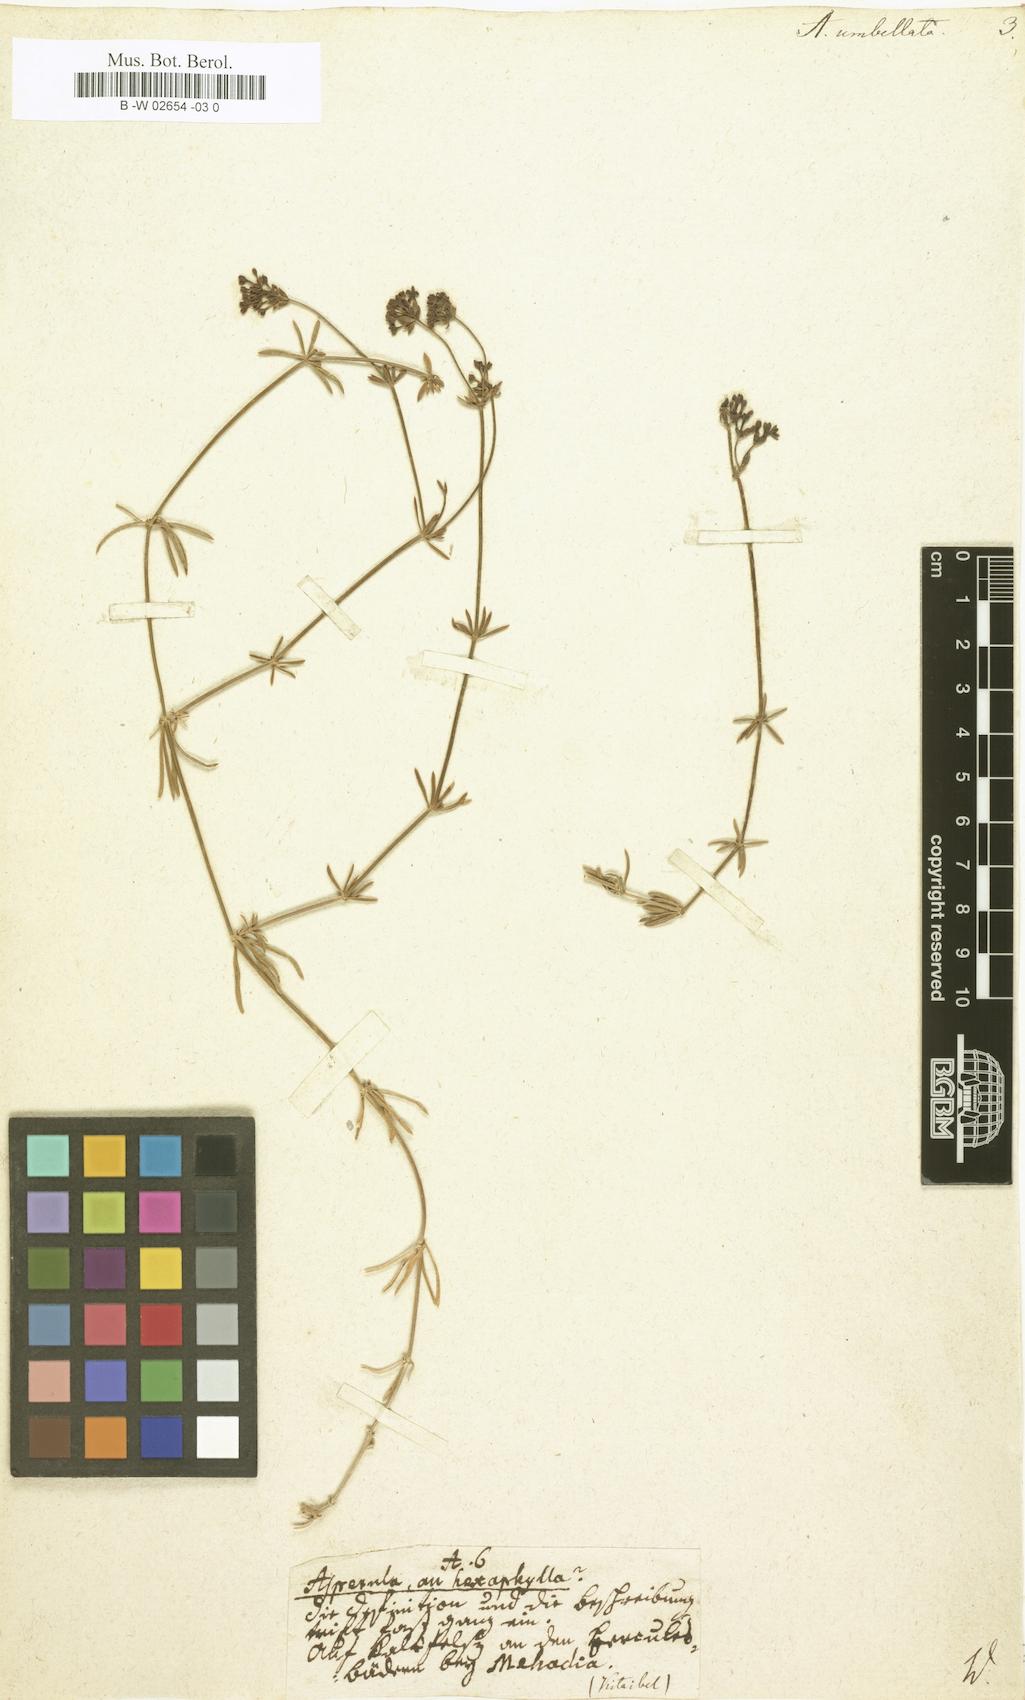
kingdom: Plantae
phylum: Tracheophyta
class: Magnoliopsida
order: Gentianales
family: Rubiaceae
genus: Hexaphylla
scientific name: Hexaphylla capitata
